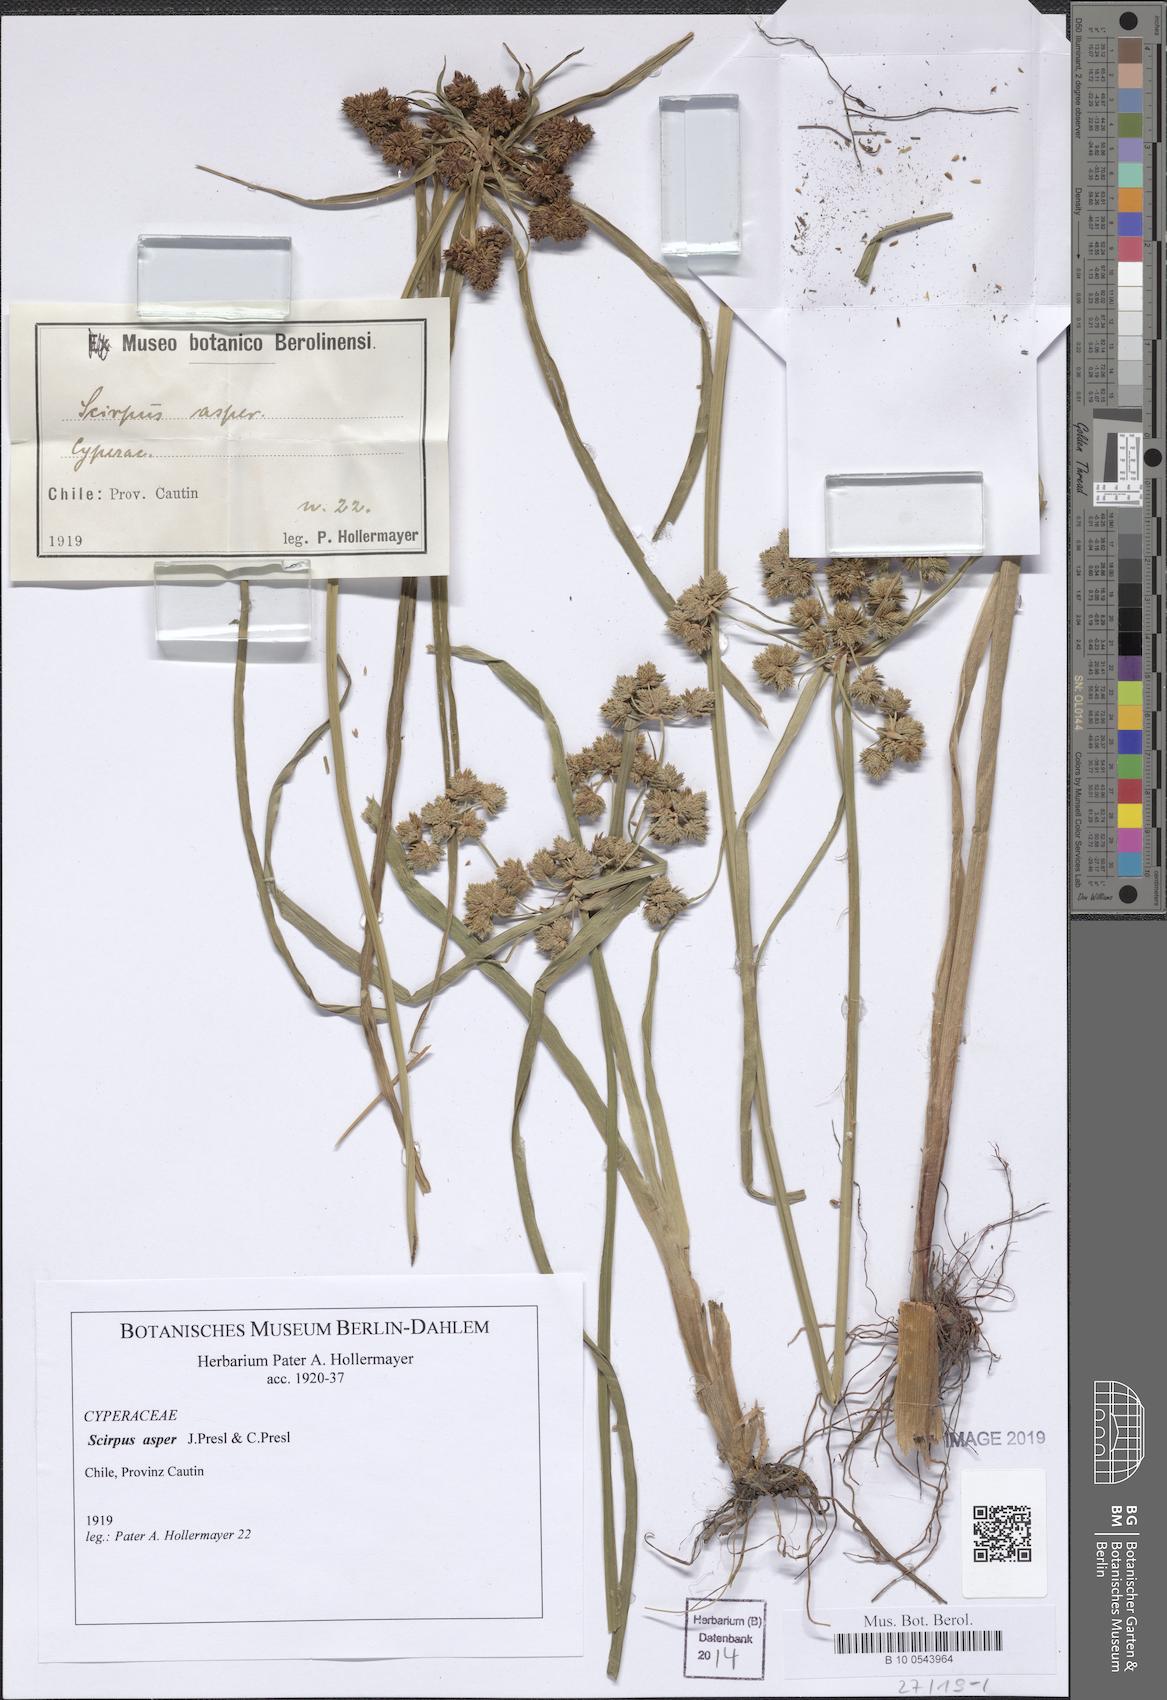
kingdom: Plantae
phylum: Tracheophyta
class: Liliopsida
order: Poales
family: Cyperaceae
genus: Rhodoscirpus
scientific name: Rhodoscirpus asper
